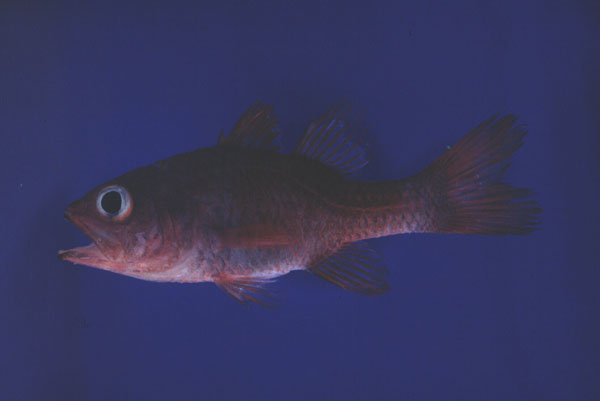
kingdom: Animalia
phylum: Chordata
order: Perciformes
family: Apogonidae
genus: Apogon
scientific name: Apogon talboti
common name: Flame cardinalfish
